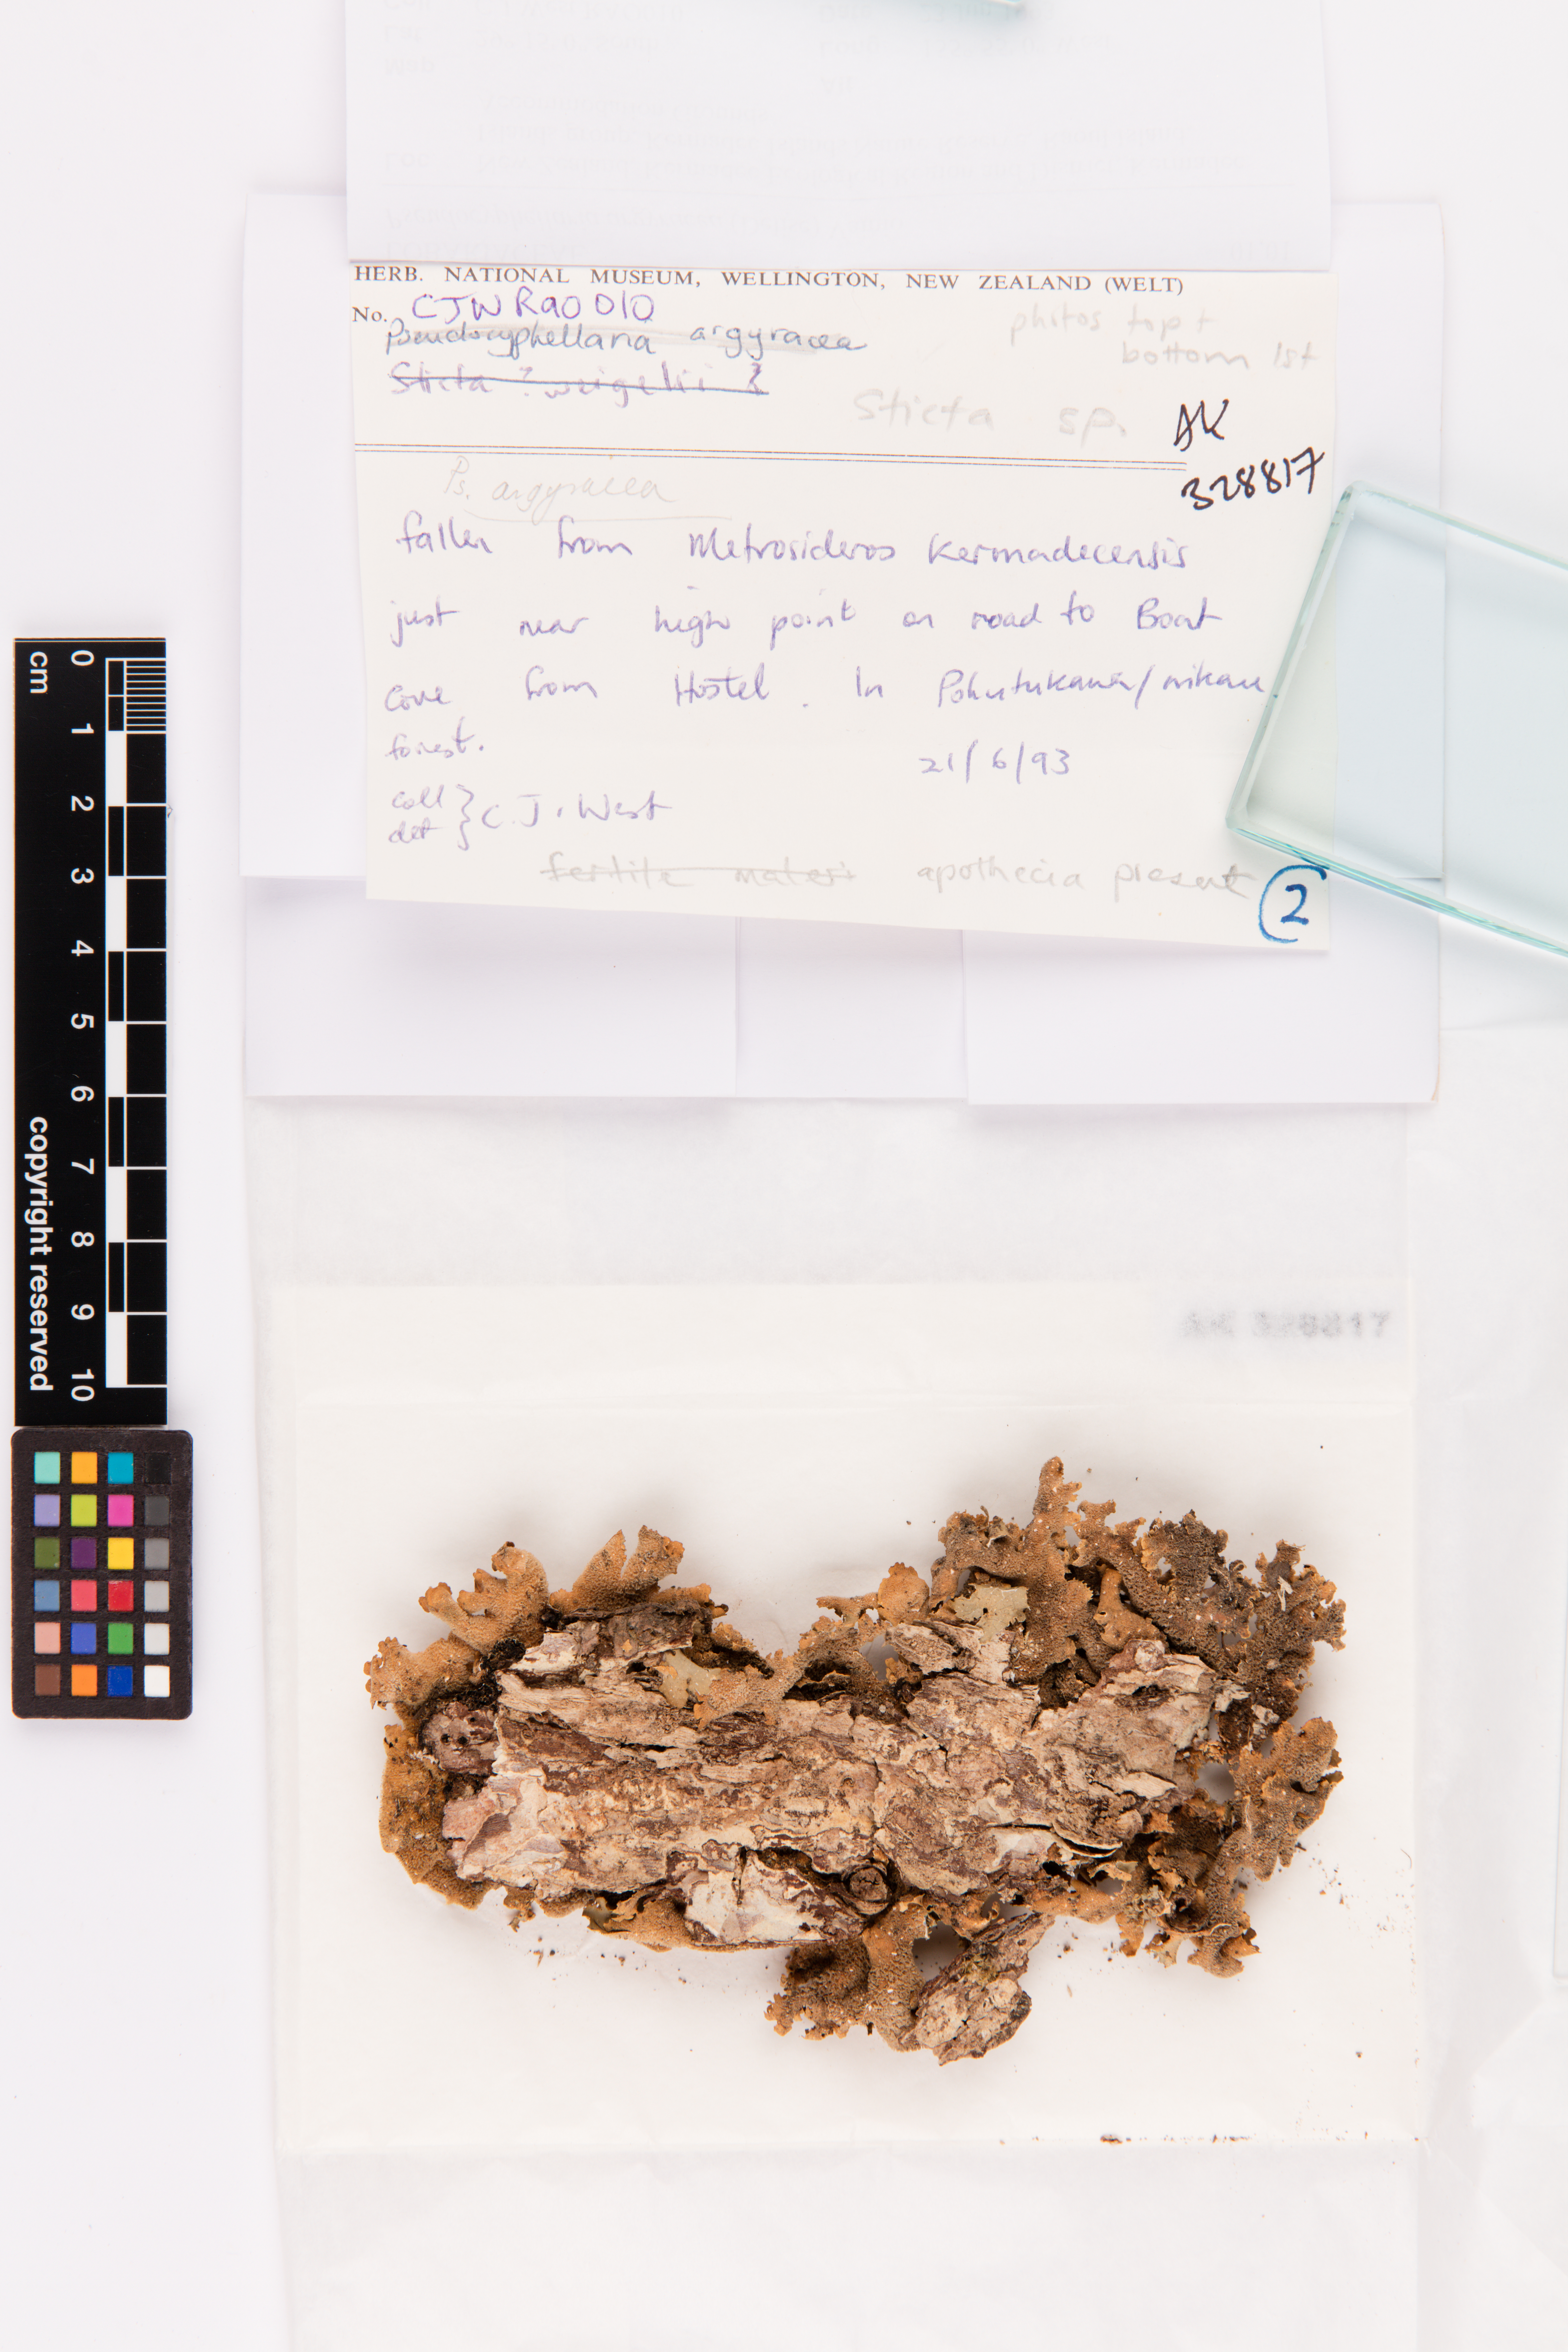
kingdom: Fungi
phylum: Ascomycota
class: Lecanoromycetes
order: Peltigerales
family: Lobariaceae
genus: Pseudocyphellaria
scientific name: Pseudocyphellaria argyracea
